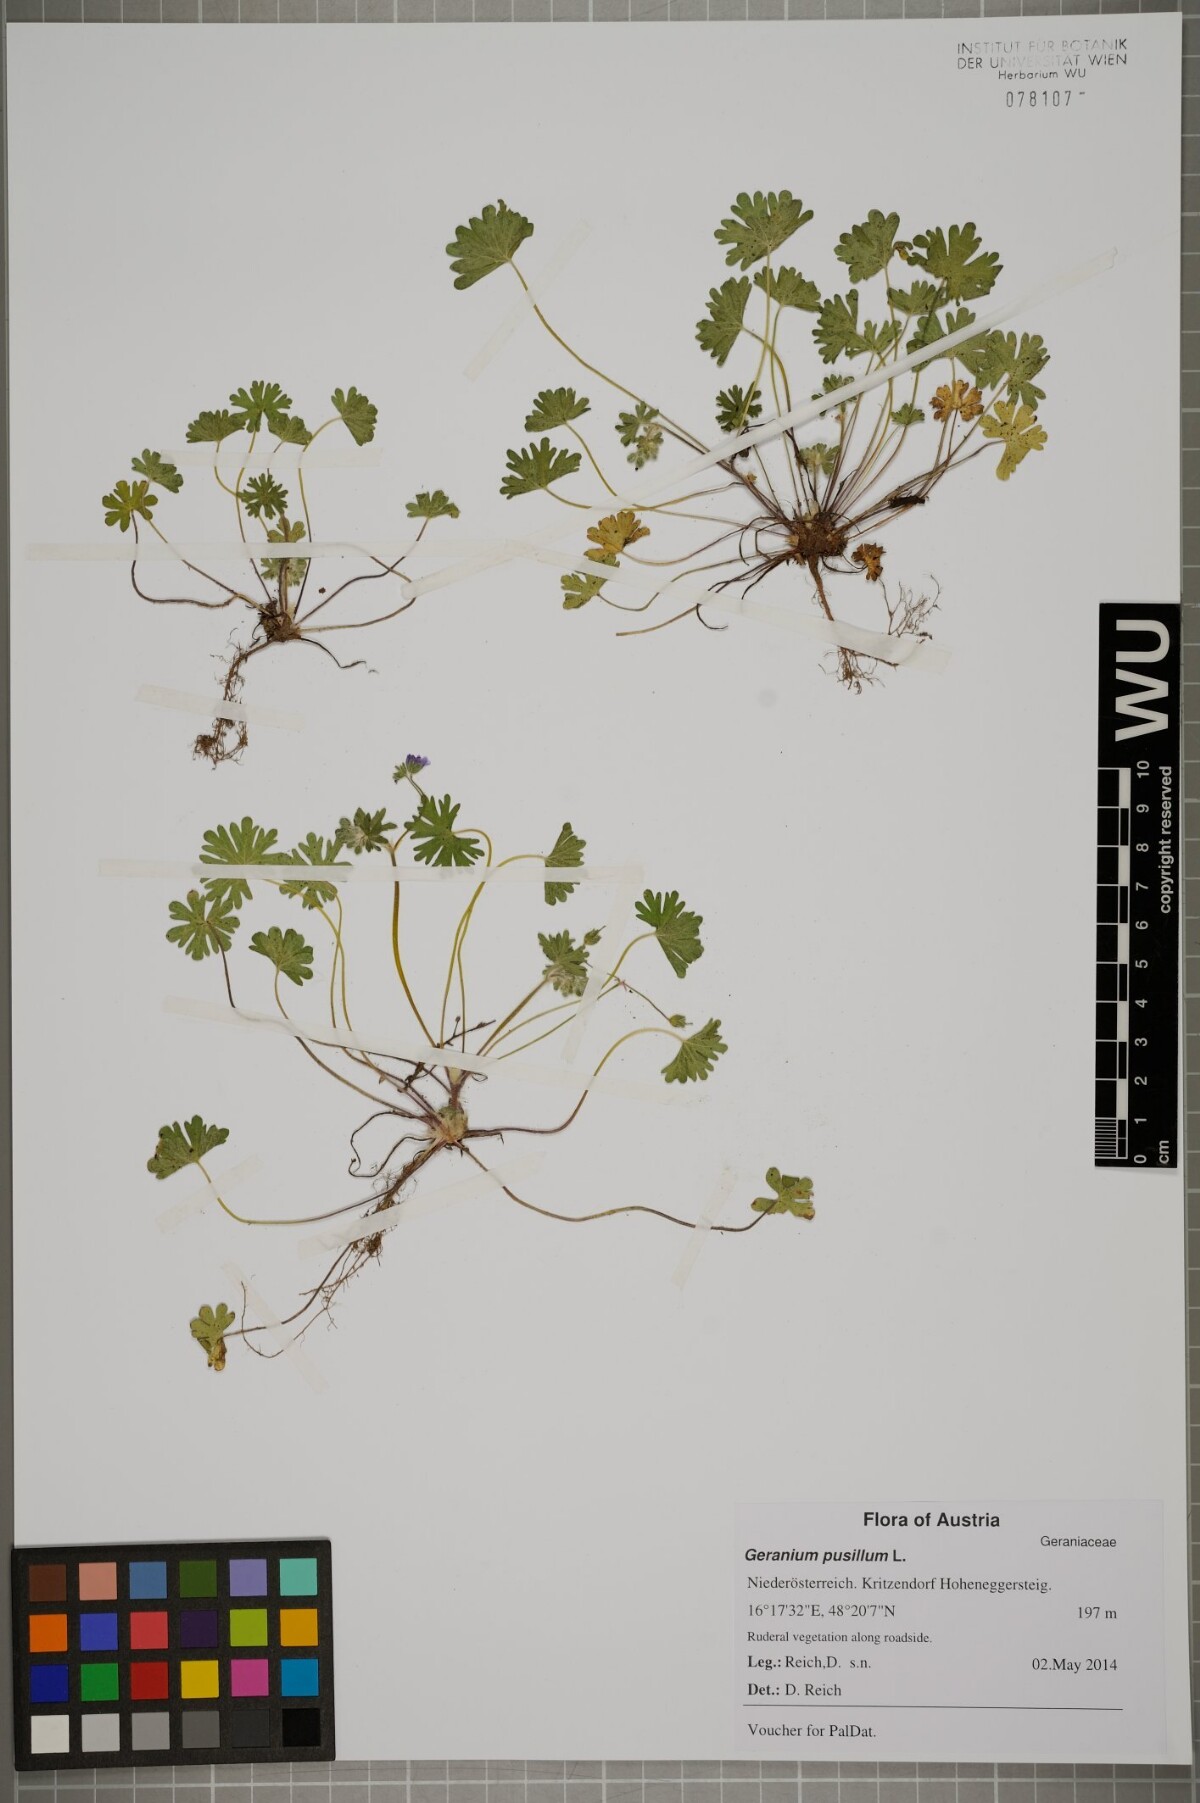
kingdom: Plantae
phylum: Tracheophyta
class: Magnoliopsida
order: Geraniales
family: Geraniaceae
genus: Geranium
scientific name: Geranium pusillum
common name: Small geranium
